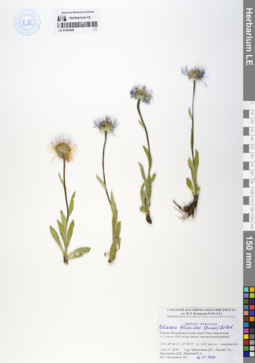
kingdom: Plantae
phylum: Tracheophyta
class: Magnoliopsida
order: Asterales
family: Asteraceae
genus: Tibetiodes
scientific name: Tibetiodes flaccida
